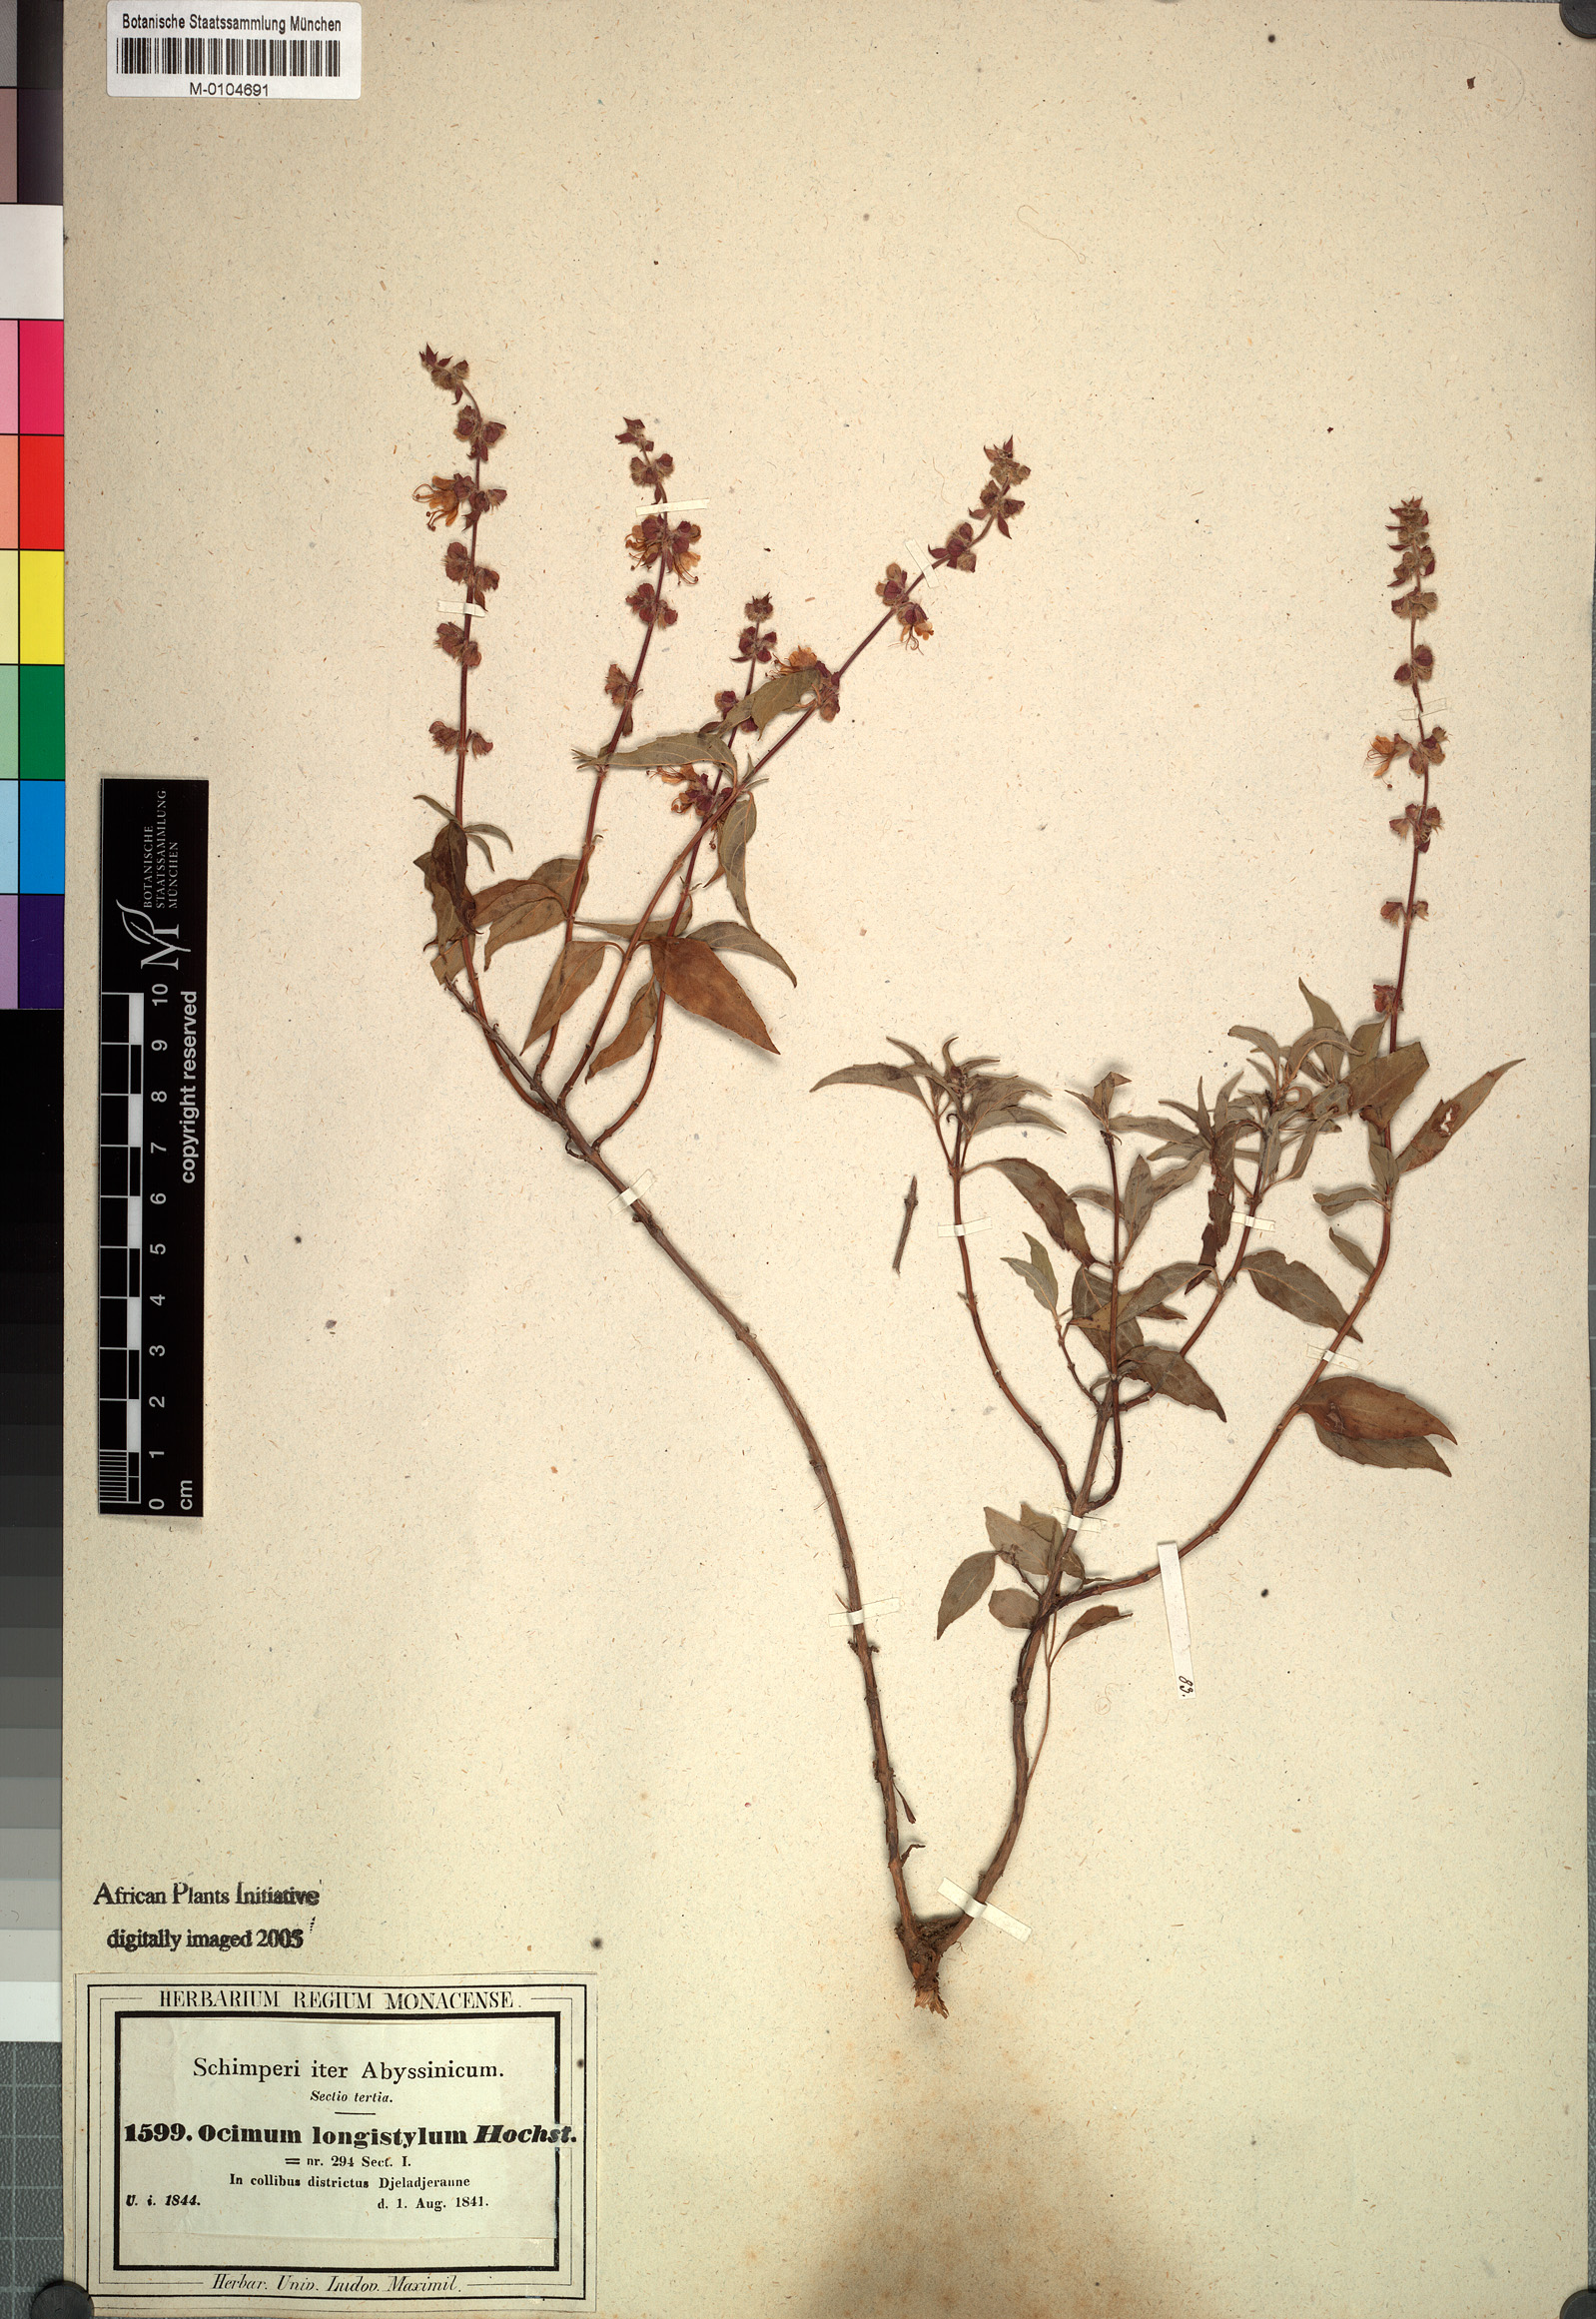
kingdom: Plantae
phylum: Tracheophyta
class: Magnoliopsida
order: Lamiales
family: Lamiaceae
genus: Ocimum
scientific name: Ocimum forskoelei
